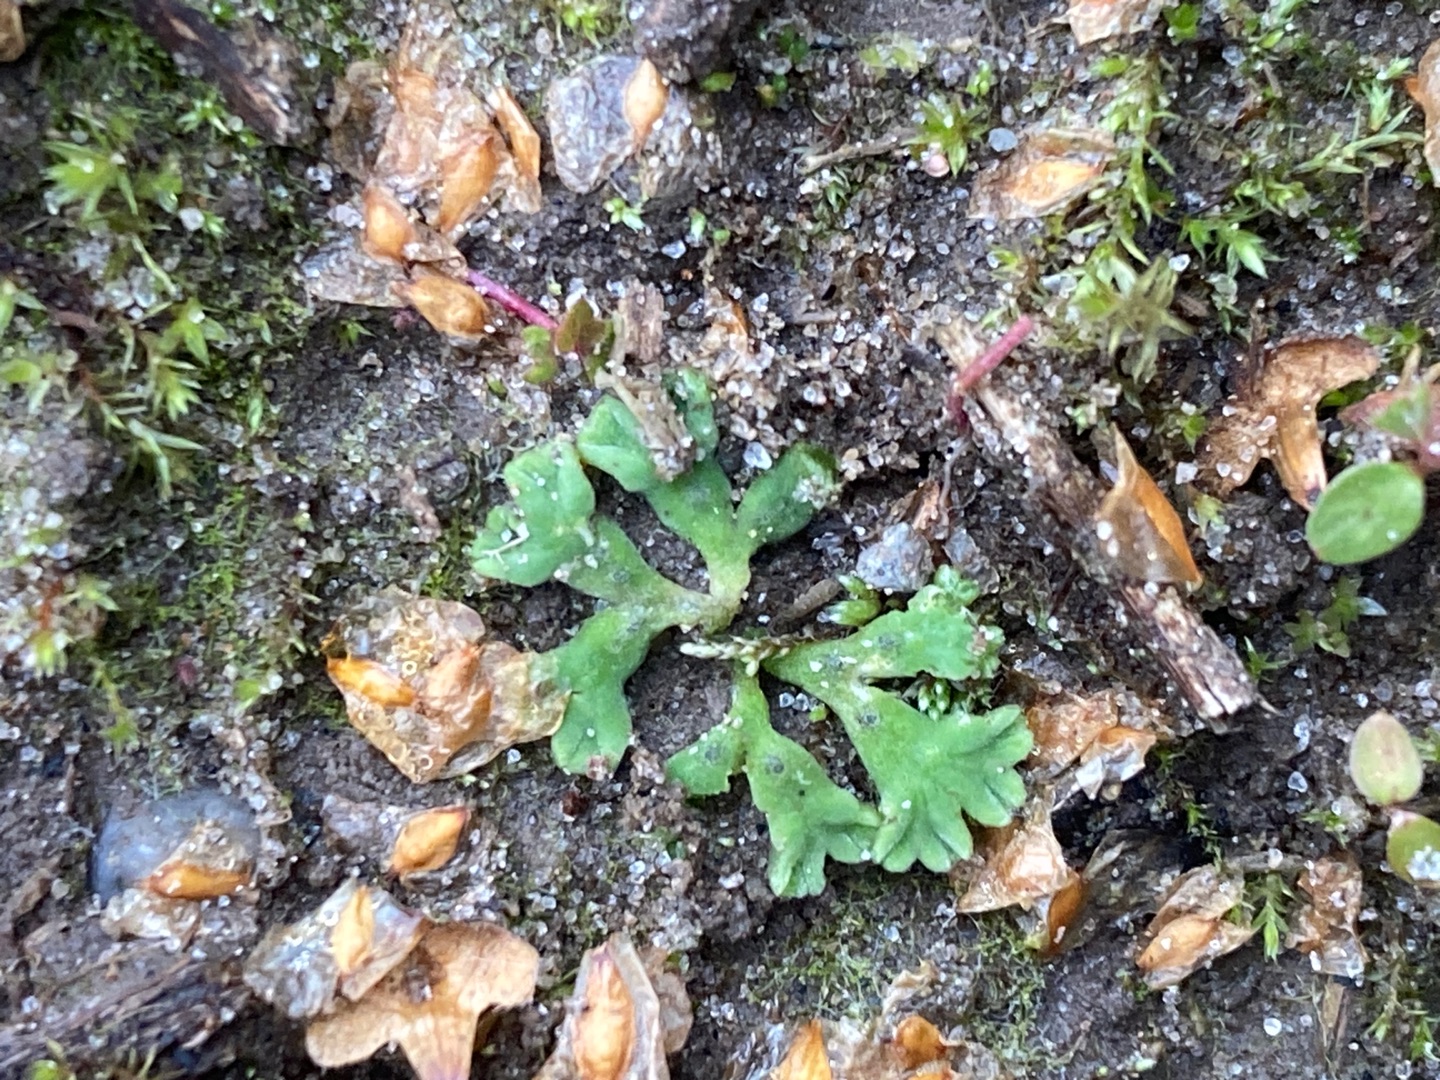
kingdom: Plantae
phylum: Marchantiophyta
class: Marchantiopsida
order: Marchantiales
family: Ricciaceae
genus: Riccia
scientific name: Riccia sorocarpa
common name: Almindelig stjerneløv
